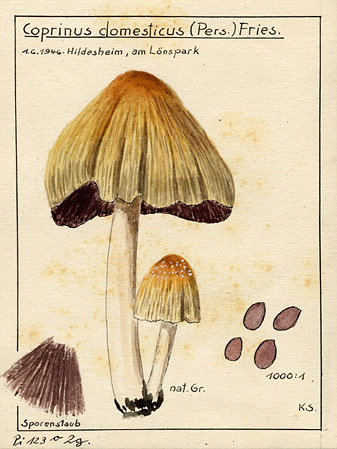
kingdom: Fungi
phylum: Basidiomycota
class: Agaricomycetes
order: Agaricales
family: Psathyrellaceae
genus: Coprinellus
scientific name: Coprinellus domesticus
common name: Firerug inkcap
